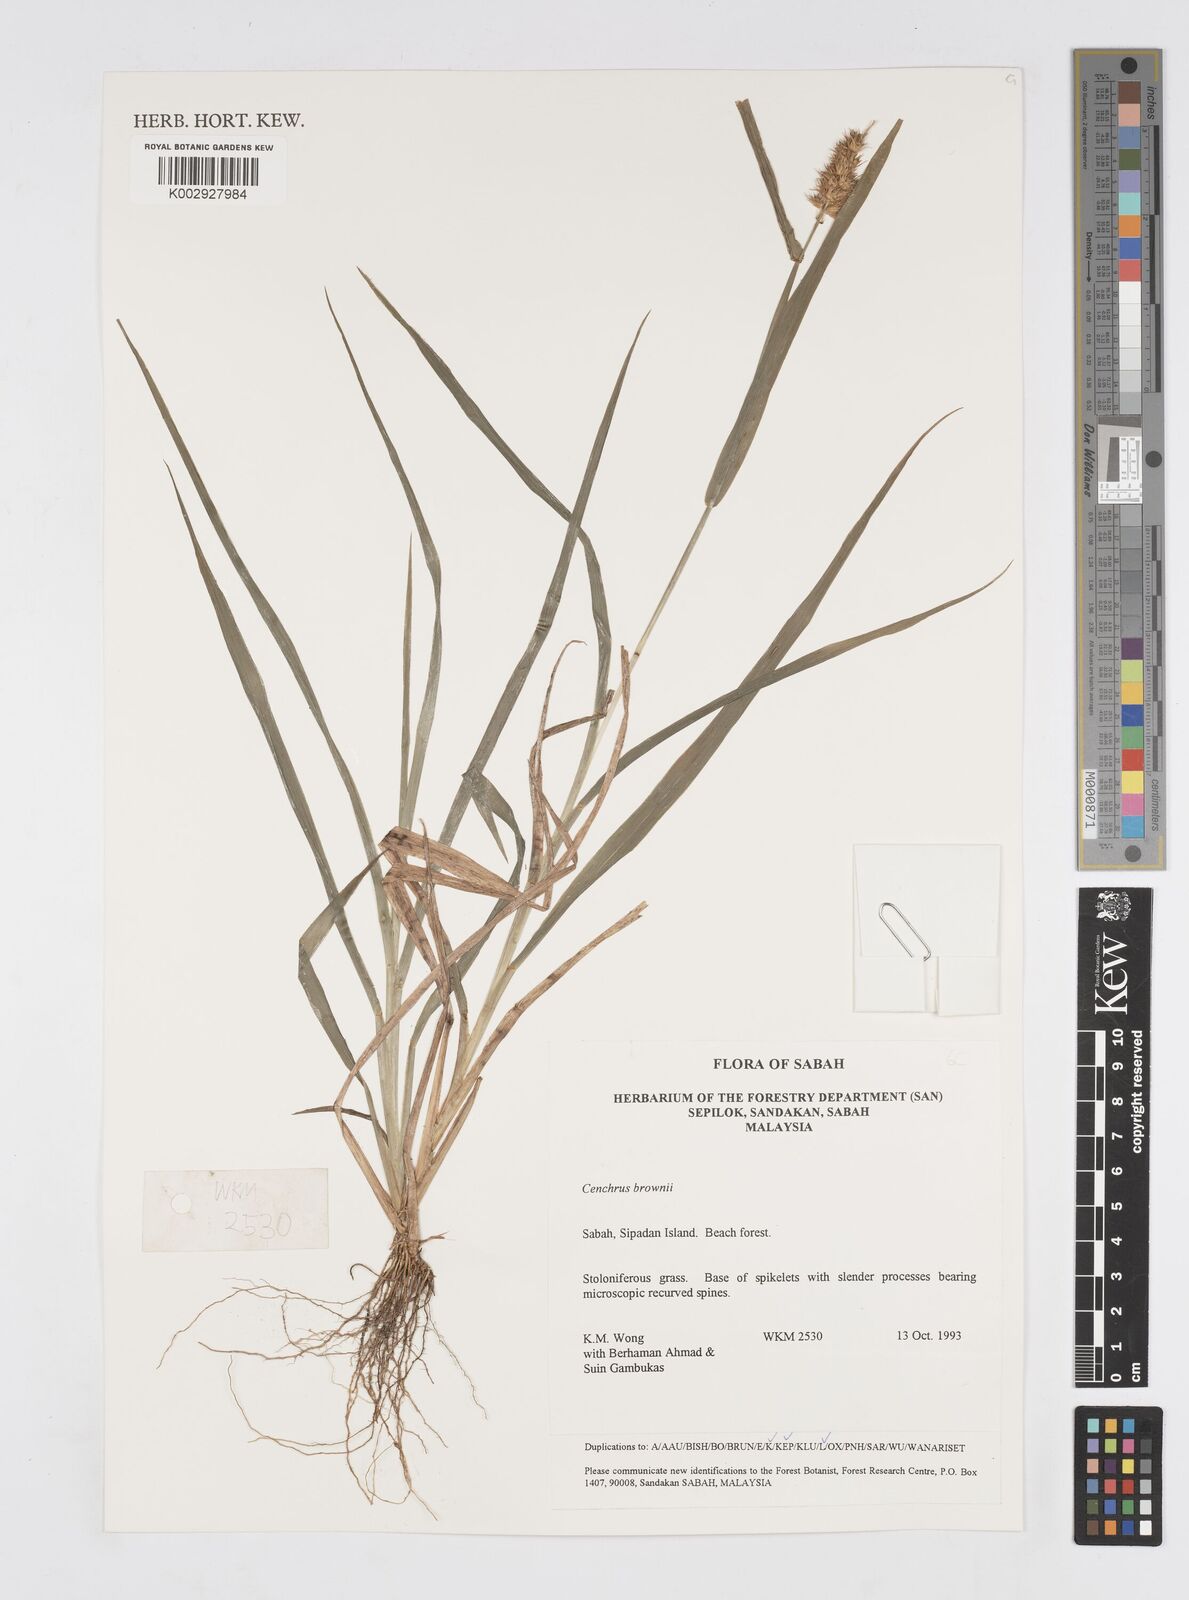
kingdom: Plantae
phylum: Tracheophyta
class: Liliopsida
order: Poales
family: Poaceae
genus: Cenchrus
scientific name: Cenchrus brownii
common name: Slim-bristle sandbur
